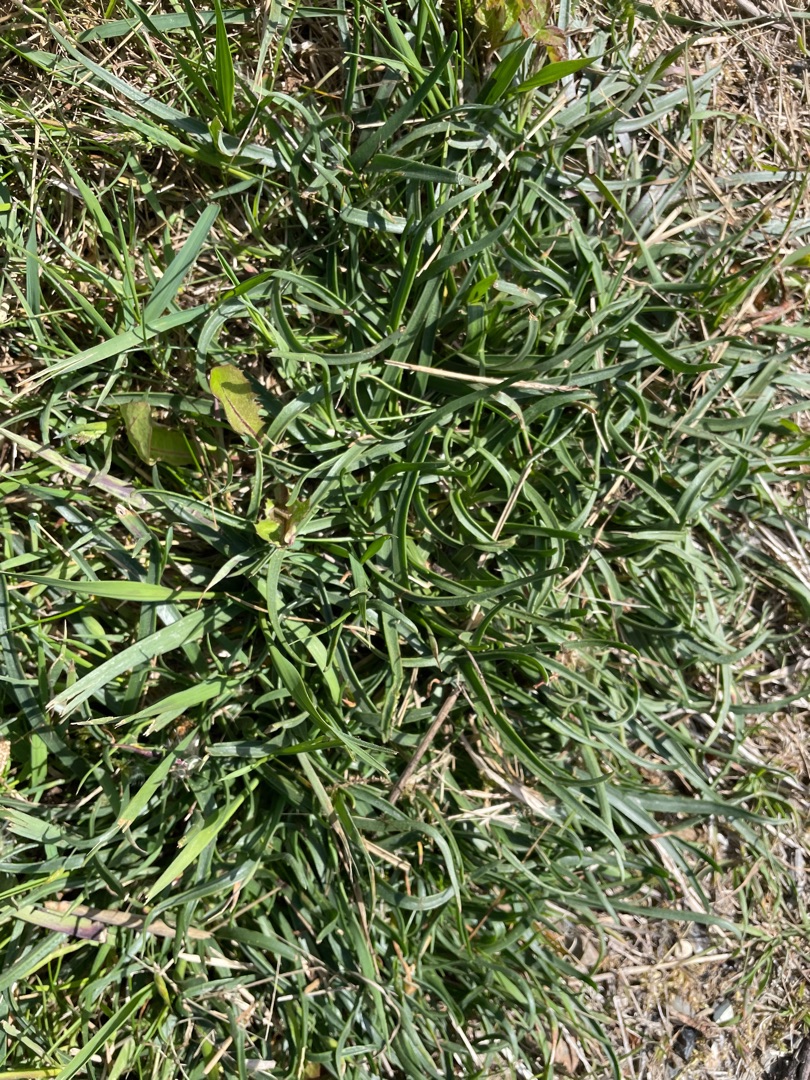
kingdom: Plantae
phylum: Tracheophyta
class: Magnoliopsida
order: Lamiales
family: Plantaginaceae
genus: Plantago
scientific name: Plantago maritima
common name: Strand-vejbred
